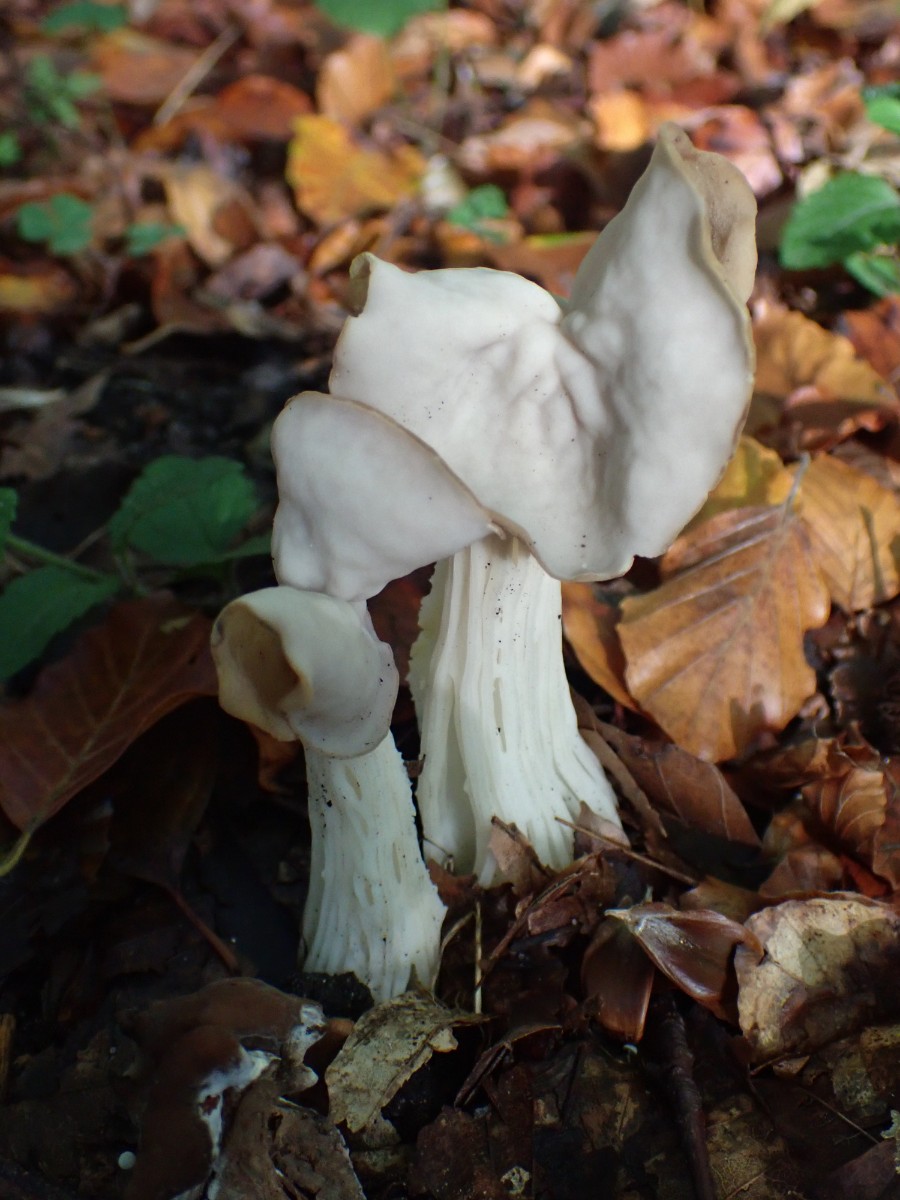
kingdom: Fungi
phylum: Ascomycota
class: Pezizomycetes
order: Pezizales
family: Helvellaceae
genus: Helvella
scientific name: Helvella crispa
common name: kruset foldhat
